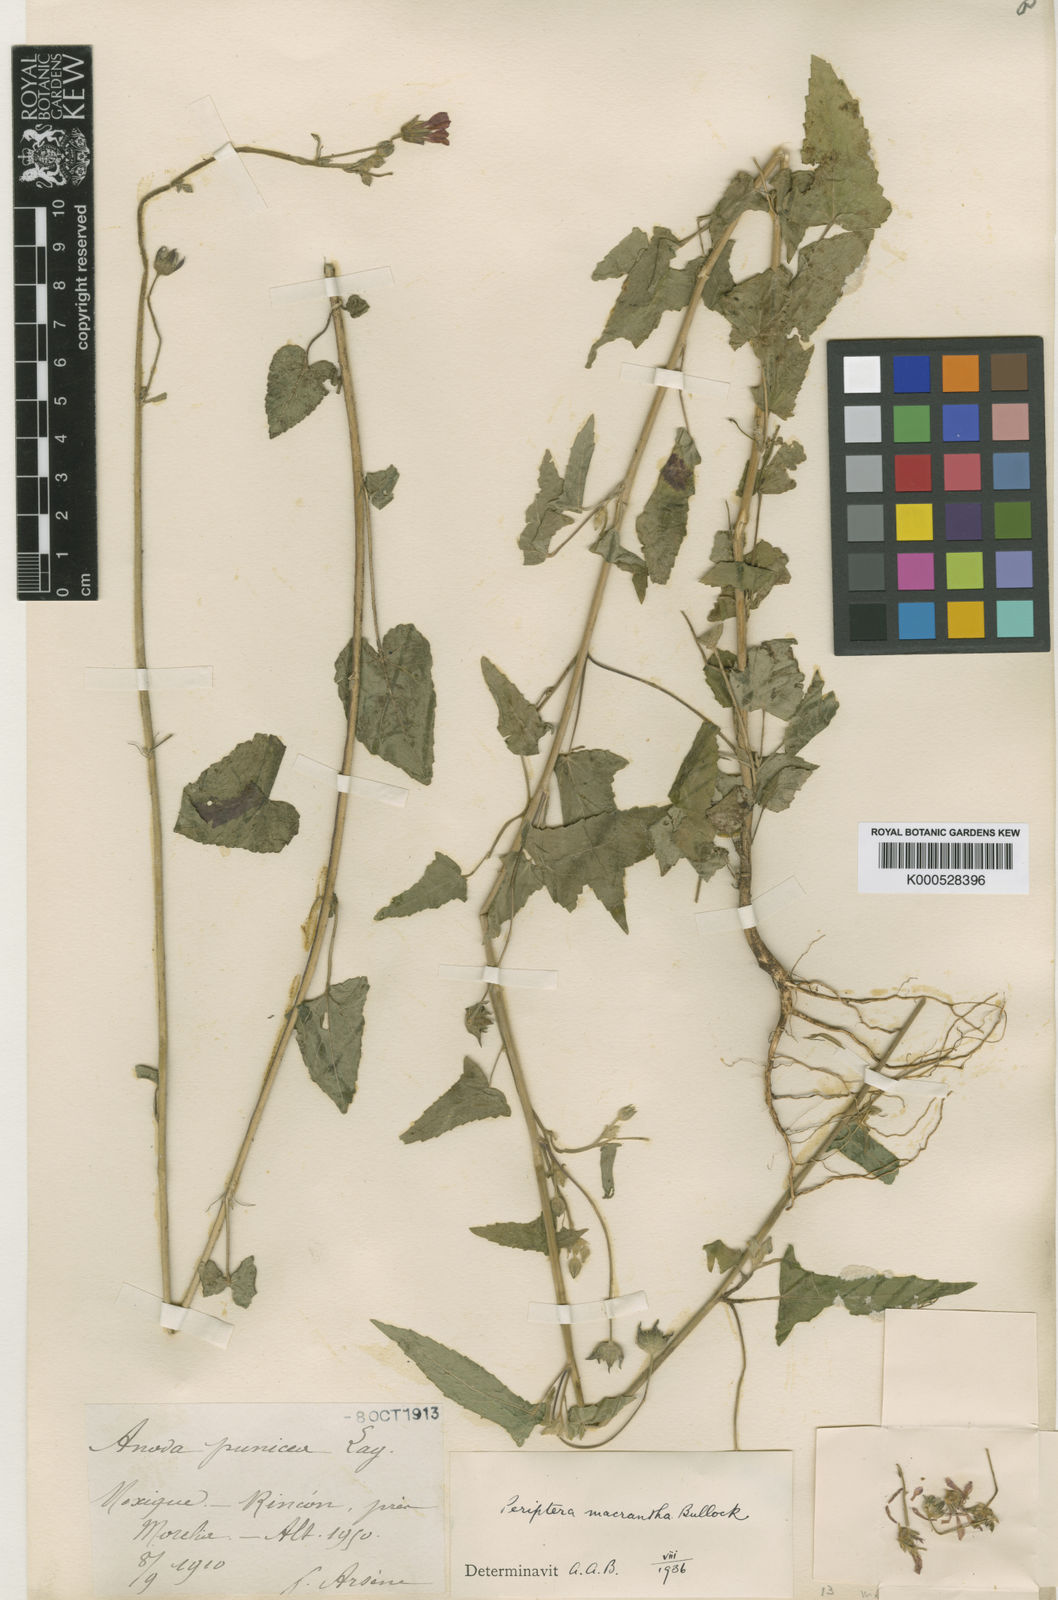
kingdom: Plantae
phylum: Tracheophyta
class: Magnoliopsida
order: Malvales
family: Malvaceae
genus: Periptera
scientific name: Periptera punicea
